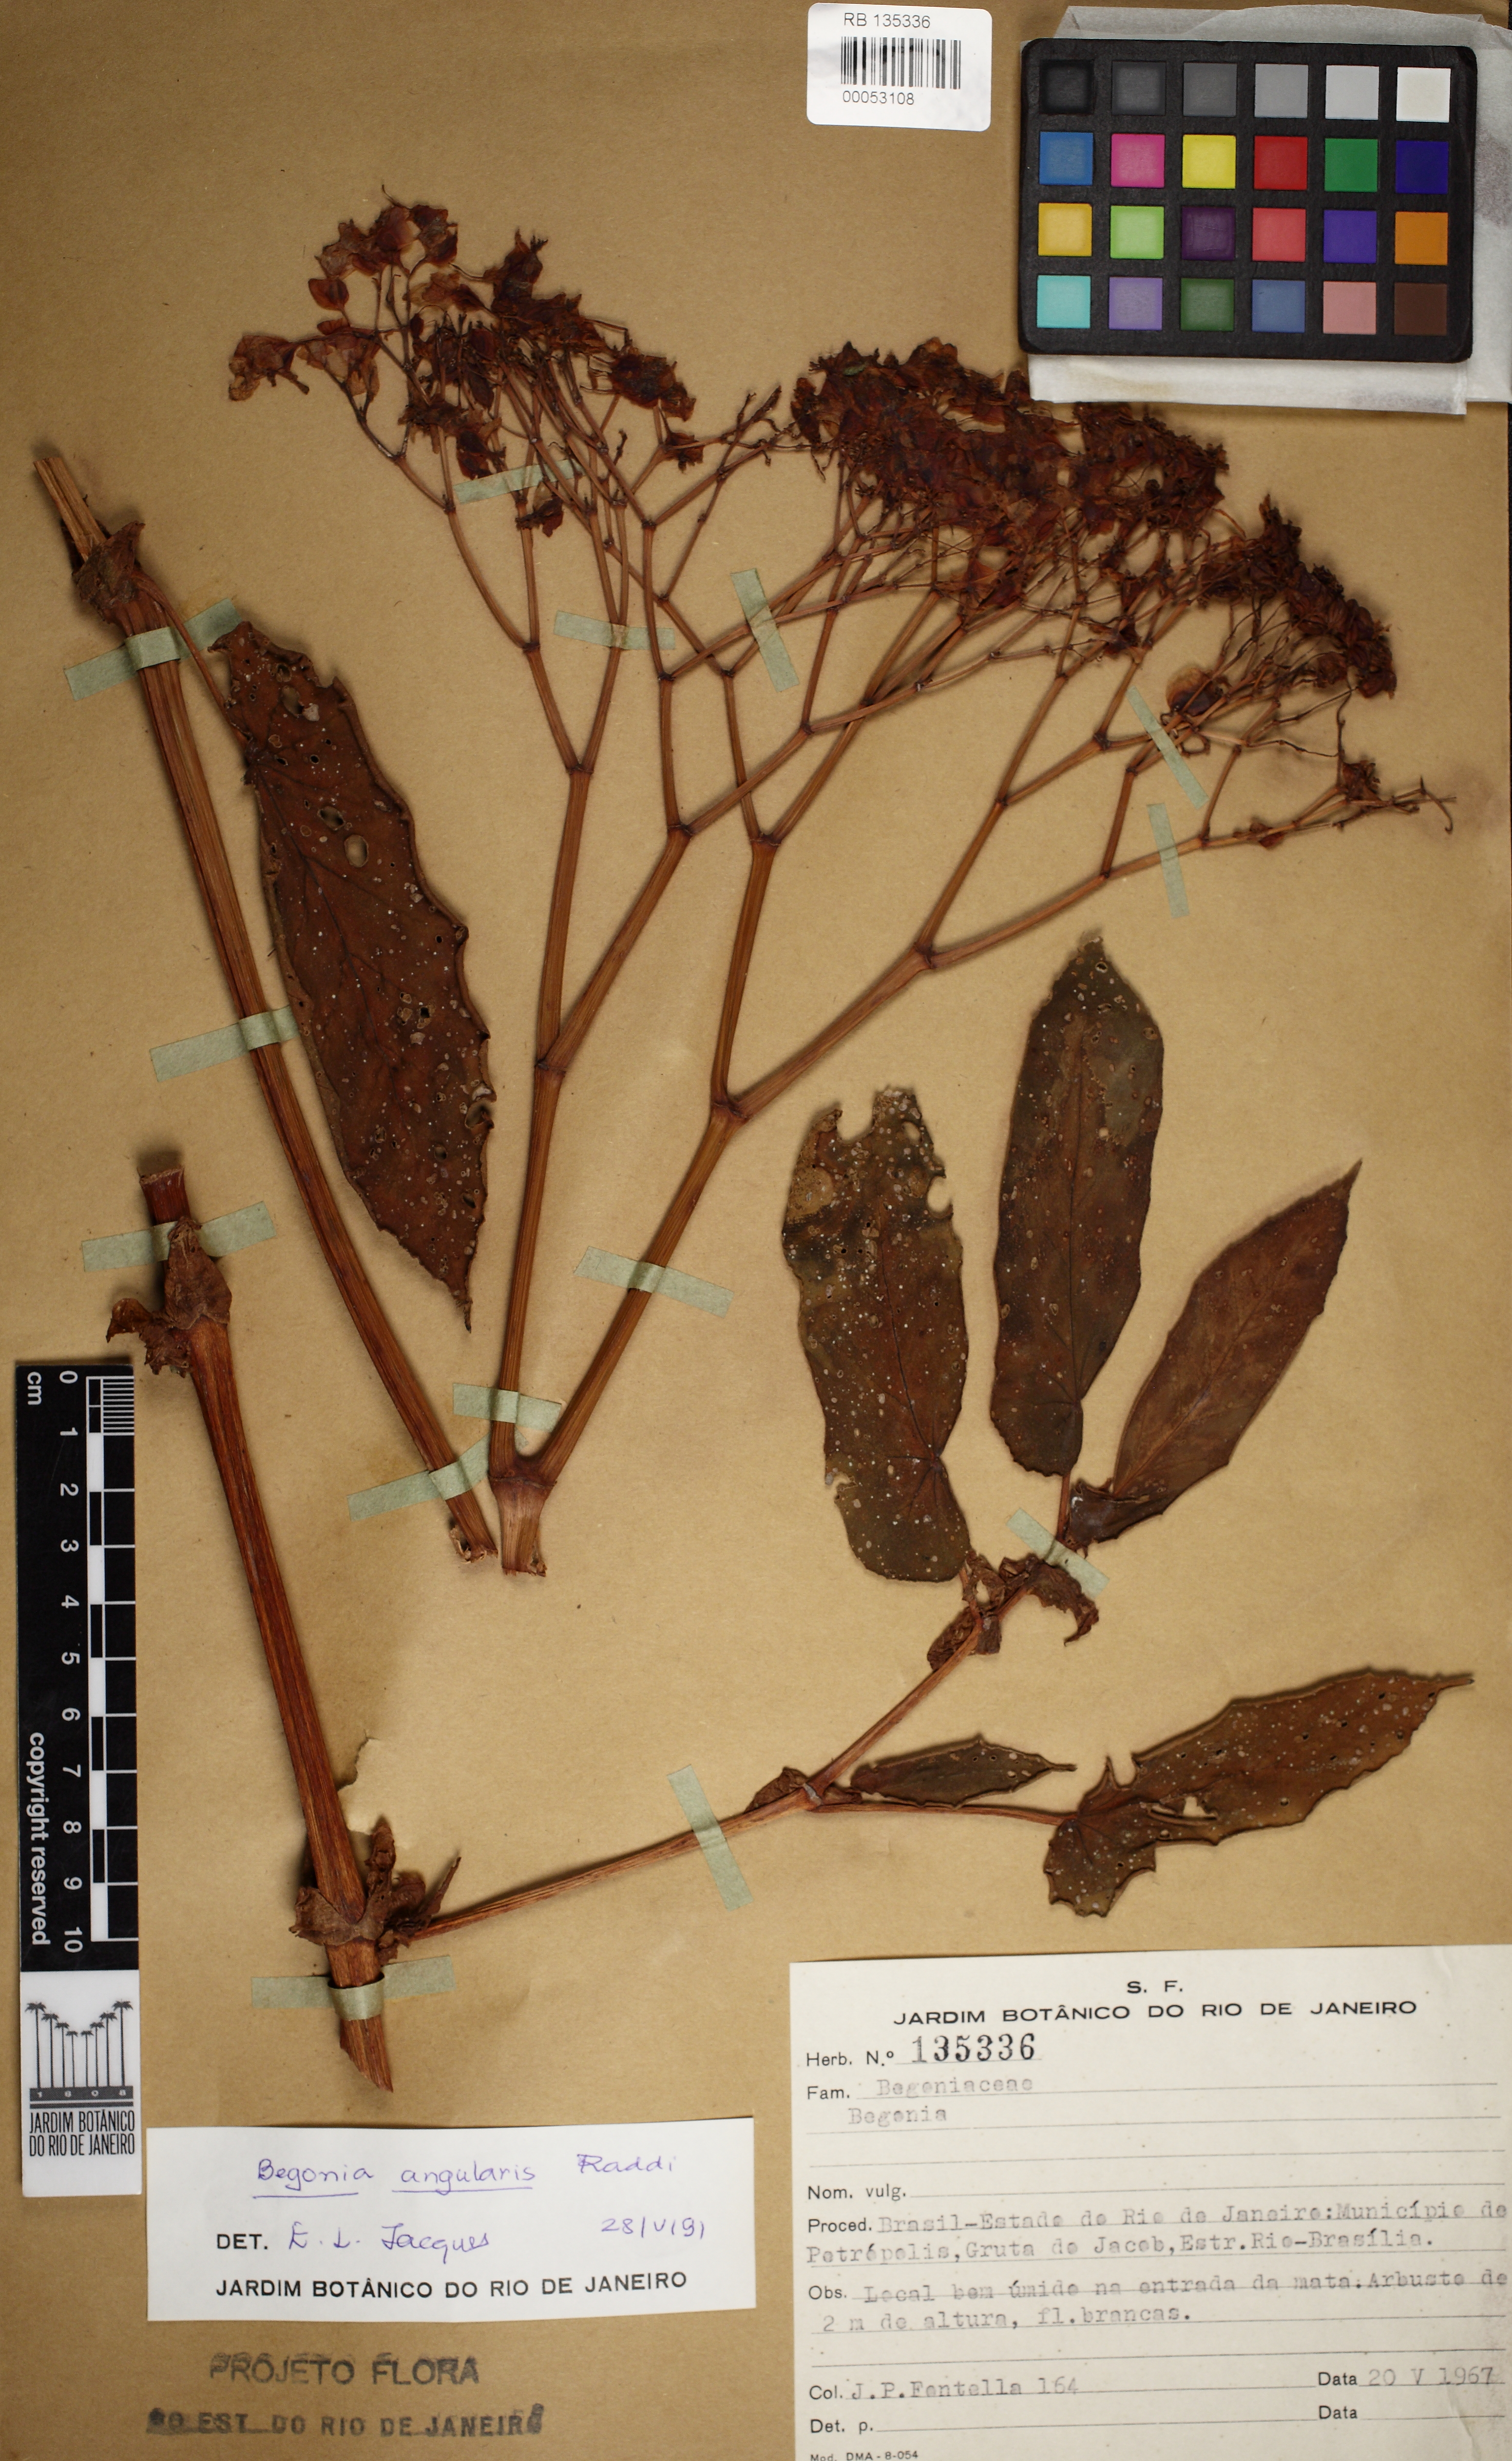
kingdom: Plantae
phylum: Tracheophyta
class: Magnoliopsida
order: Cucurbitales
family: Begoniaceae
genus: Begonia
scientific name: Begonia angularis
